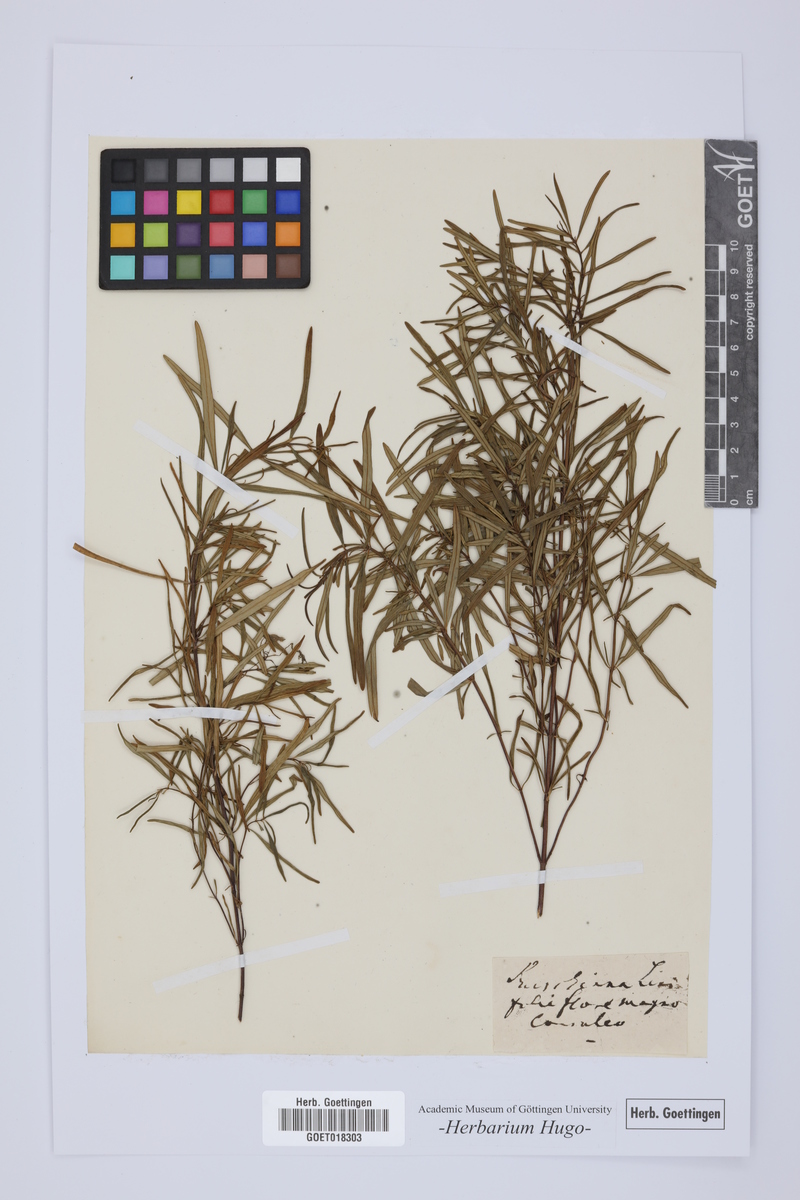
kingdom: Plantae
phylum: Tracheophyta
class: Magnoliopsida
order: Lamiales
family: Lamiaceae
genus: Dracocephalum
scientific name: Dracocephalum ruyschiana
